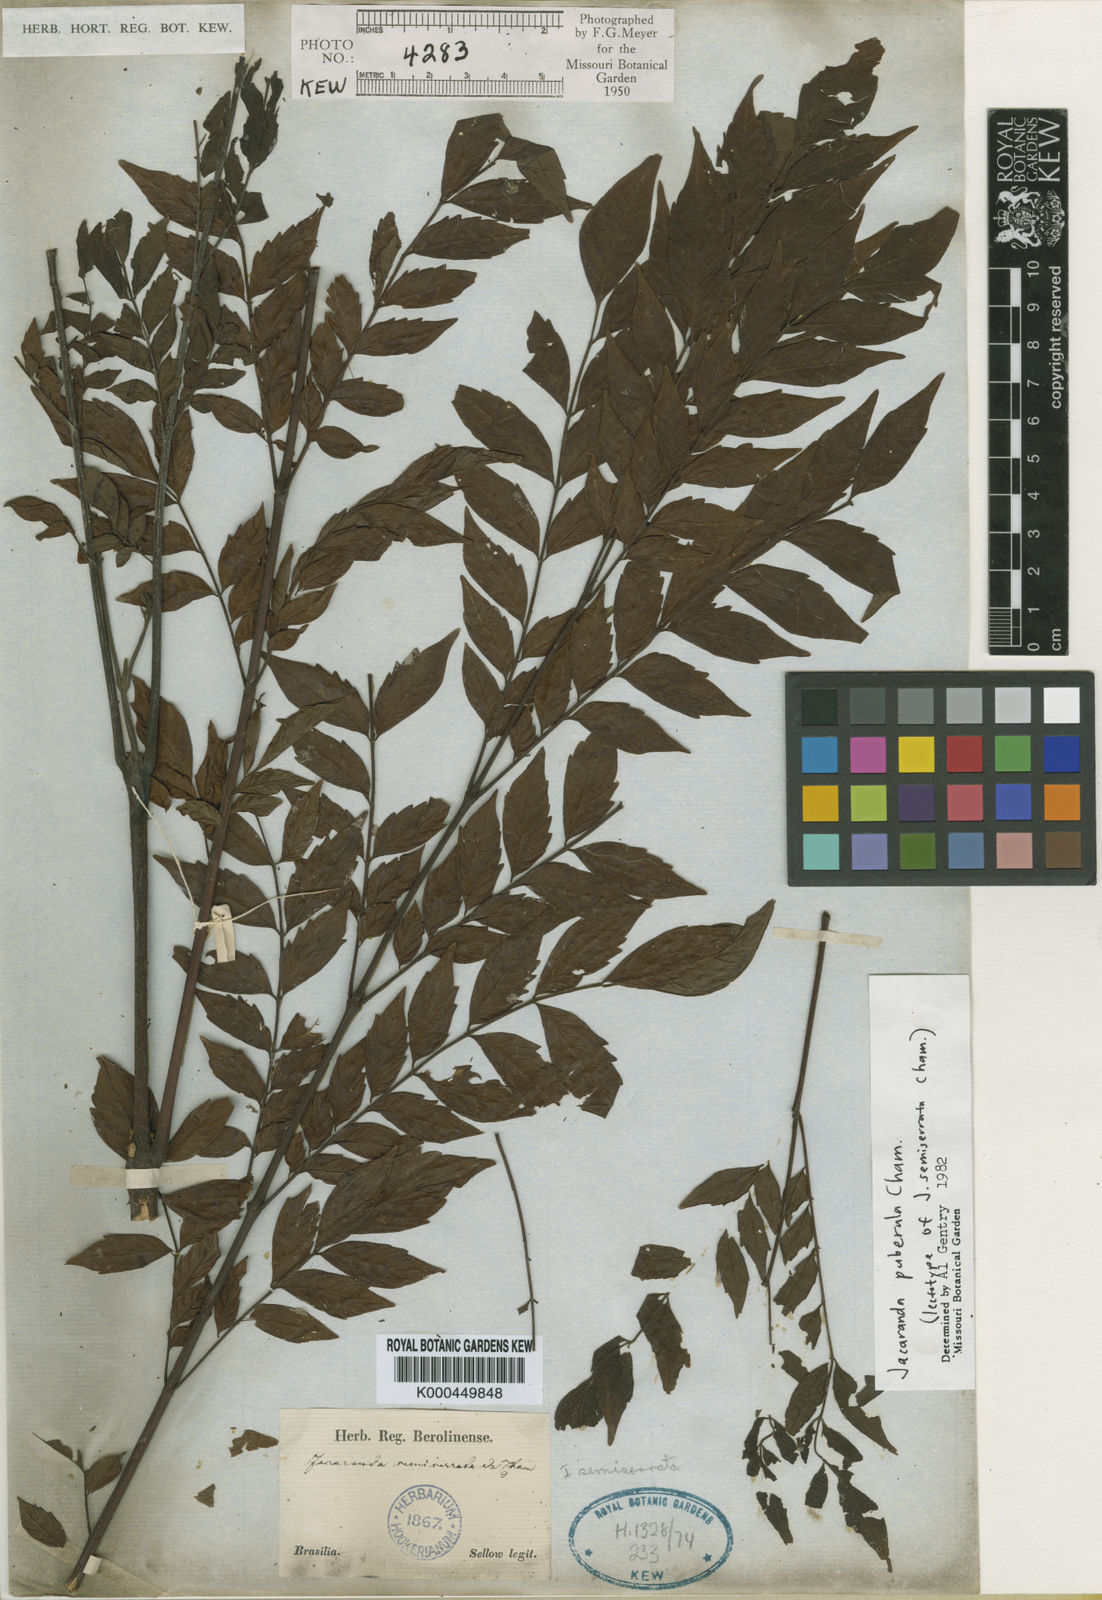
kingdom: Plantae
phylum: Tracheophyta
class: Magnoliopsida
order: Lamiales
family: Bignoniaceae
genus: Jacaranda
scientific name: Jacaranda puberula
